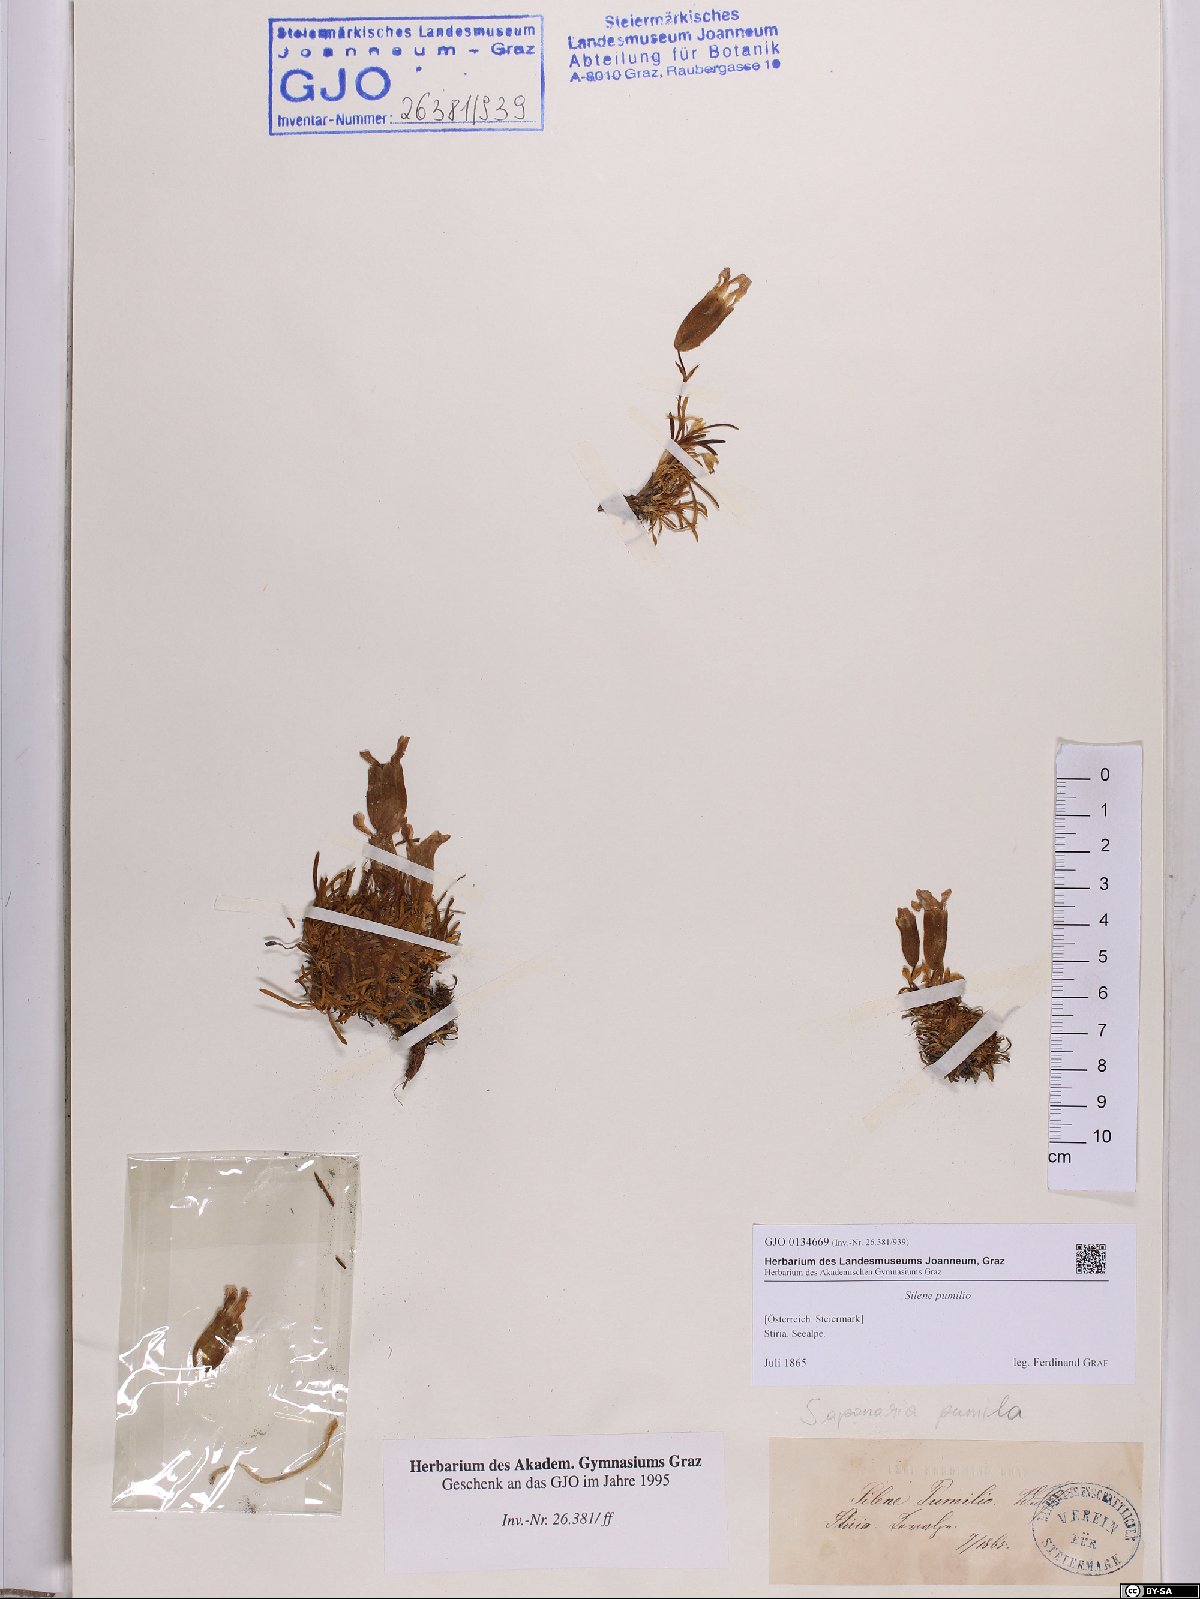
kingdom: Plantae
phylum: Tracheophyta
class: Magnoliopsida
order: Caryophyllales
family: Caryophyllaceae
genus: Saponaria
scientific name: Saponaria pumila
